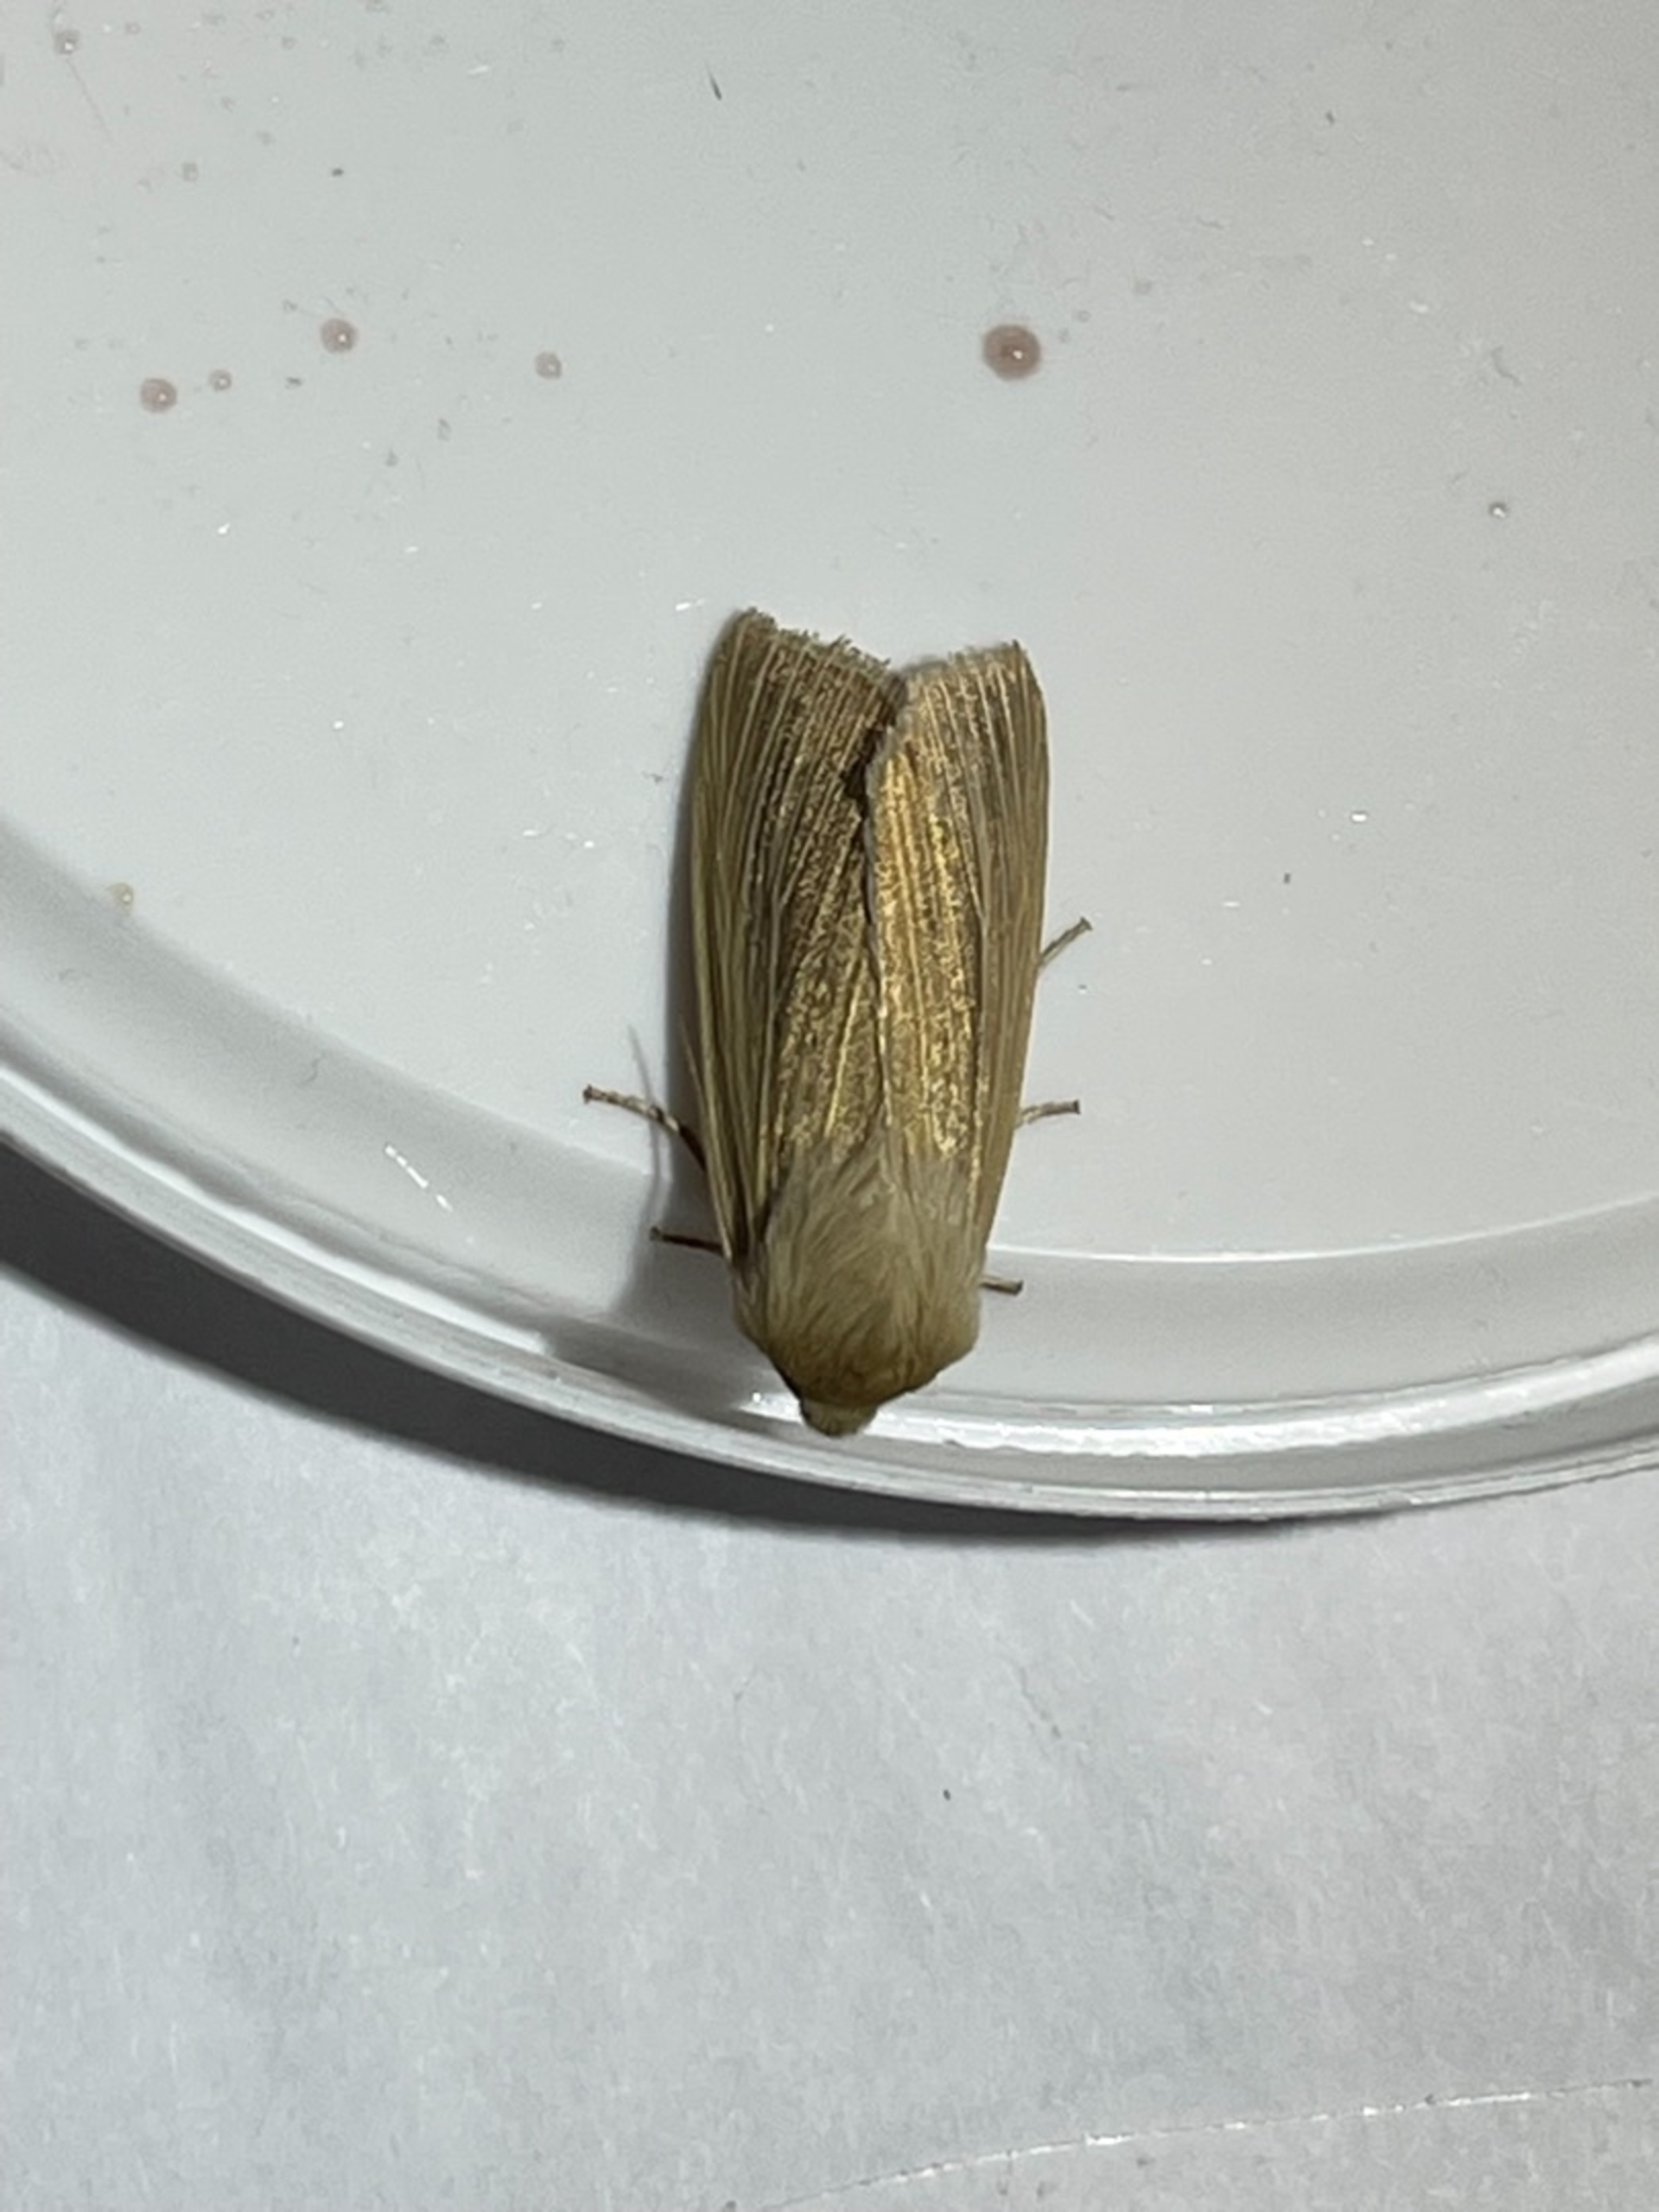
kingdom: Animalia
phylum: Arthropoda
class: Insecta
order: Lepidoptera
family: Noctuidae
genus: Mythimna
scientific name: Mythimna pallens
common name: Halmugle
